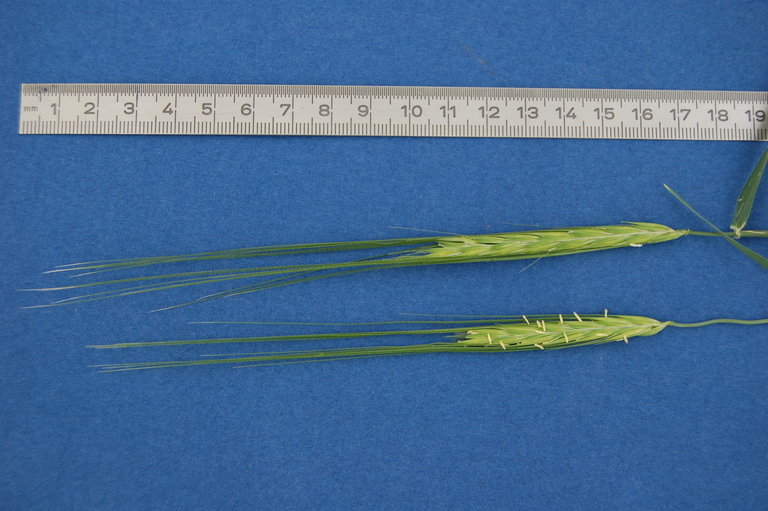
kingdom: Plantae
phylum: Tracheophyta
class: Liliopsida
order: Poales
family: Poaceae
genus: Hordeum
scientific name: Hordeum spontaneum
